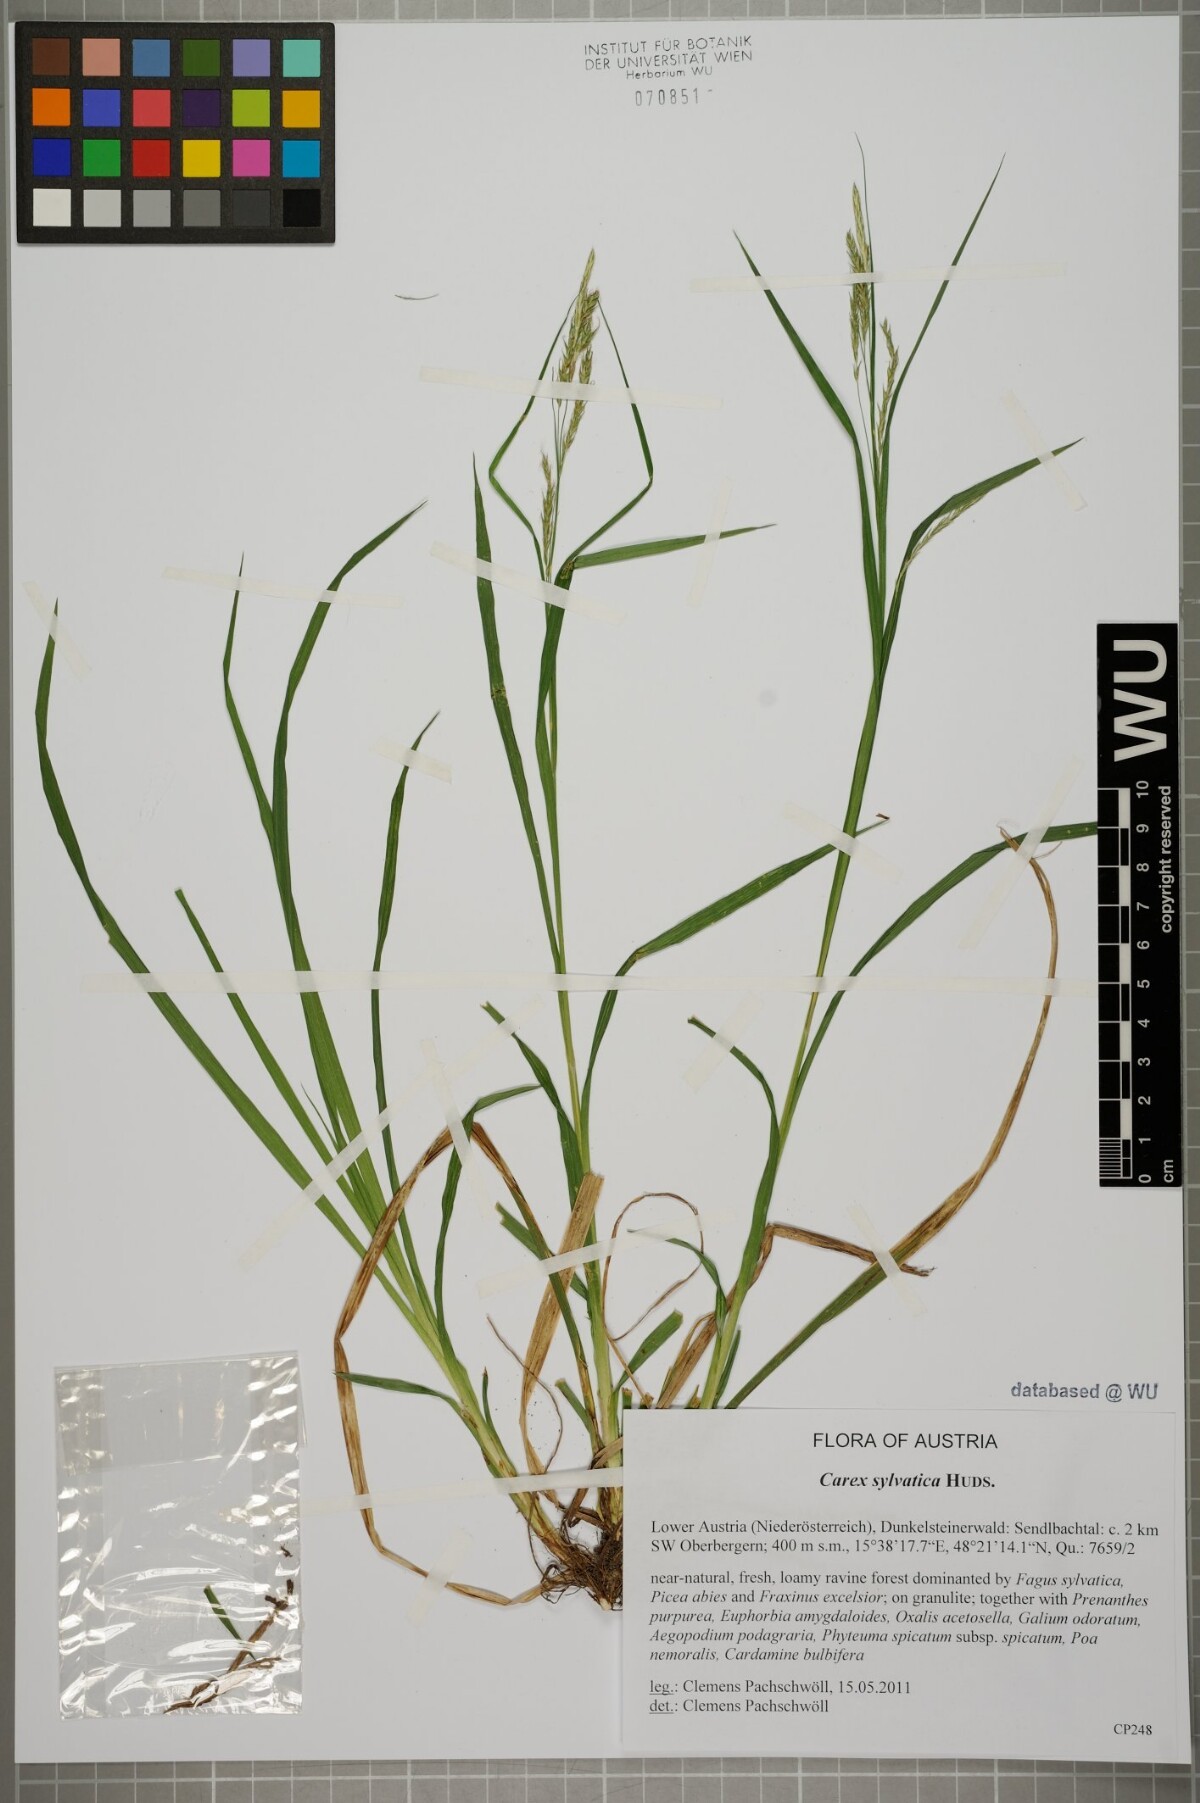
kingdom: Plantae
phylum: Tracheophyta
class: Liliopsida
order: Poales
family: Cyperaceae
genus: Carex
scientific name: Carex sylvatica
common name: Wood-sedge
